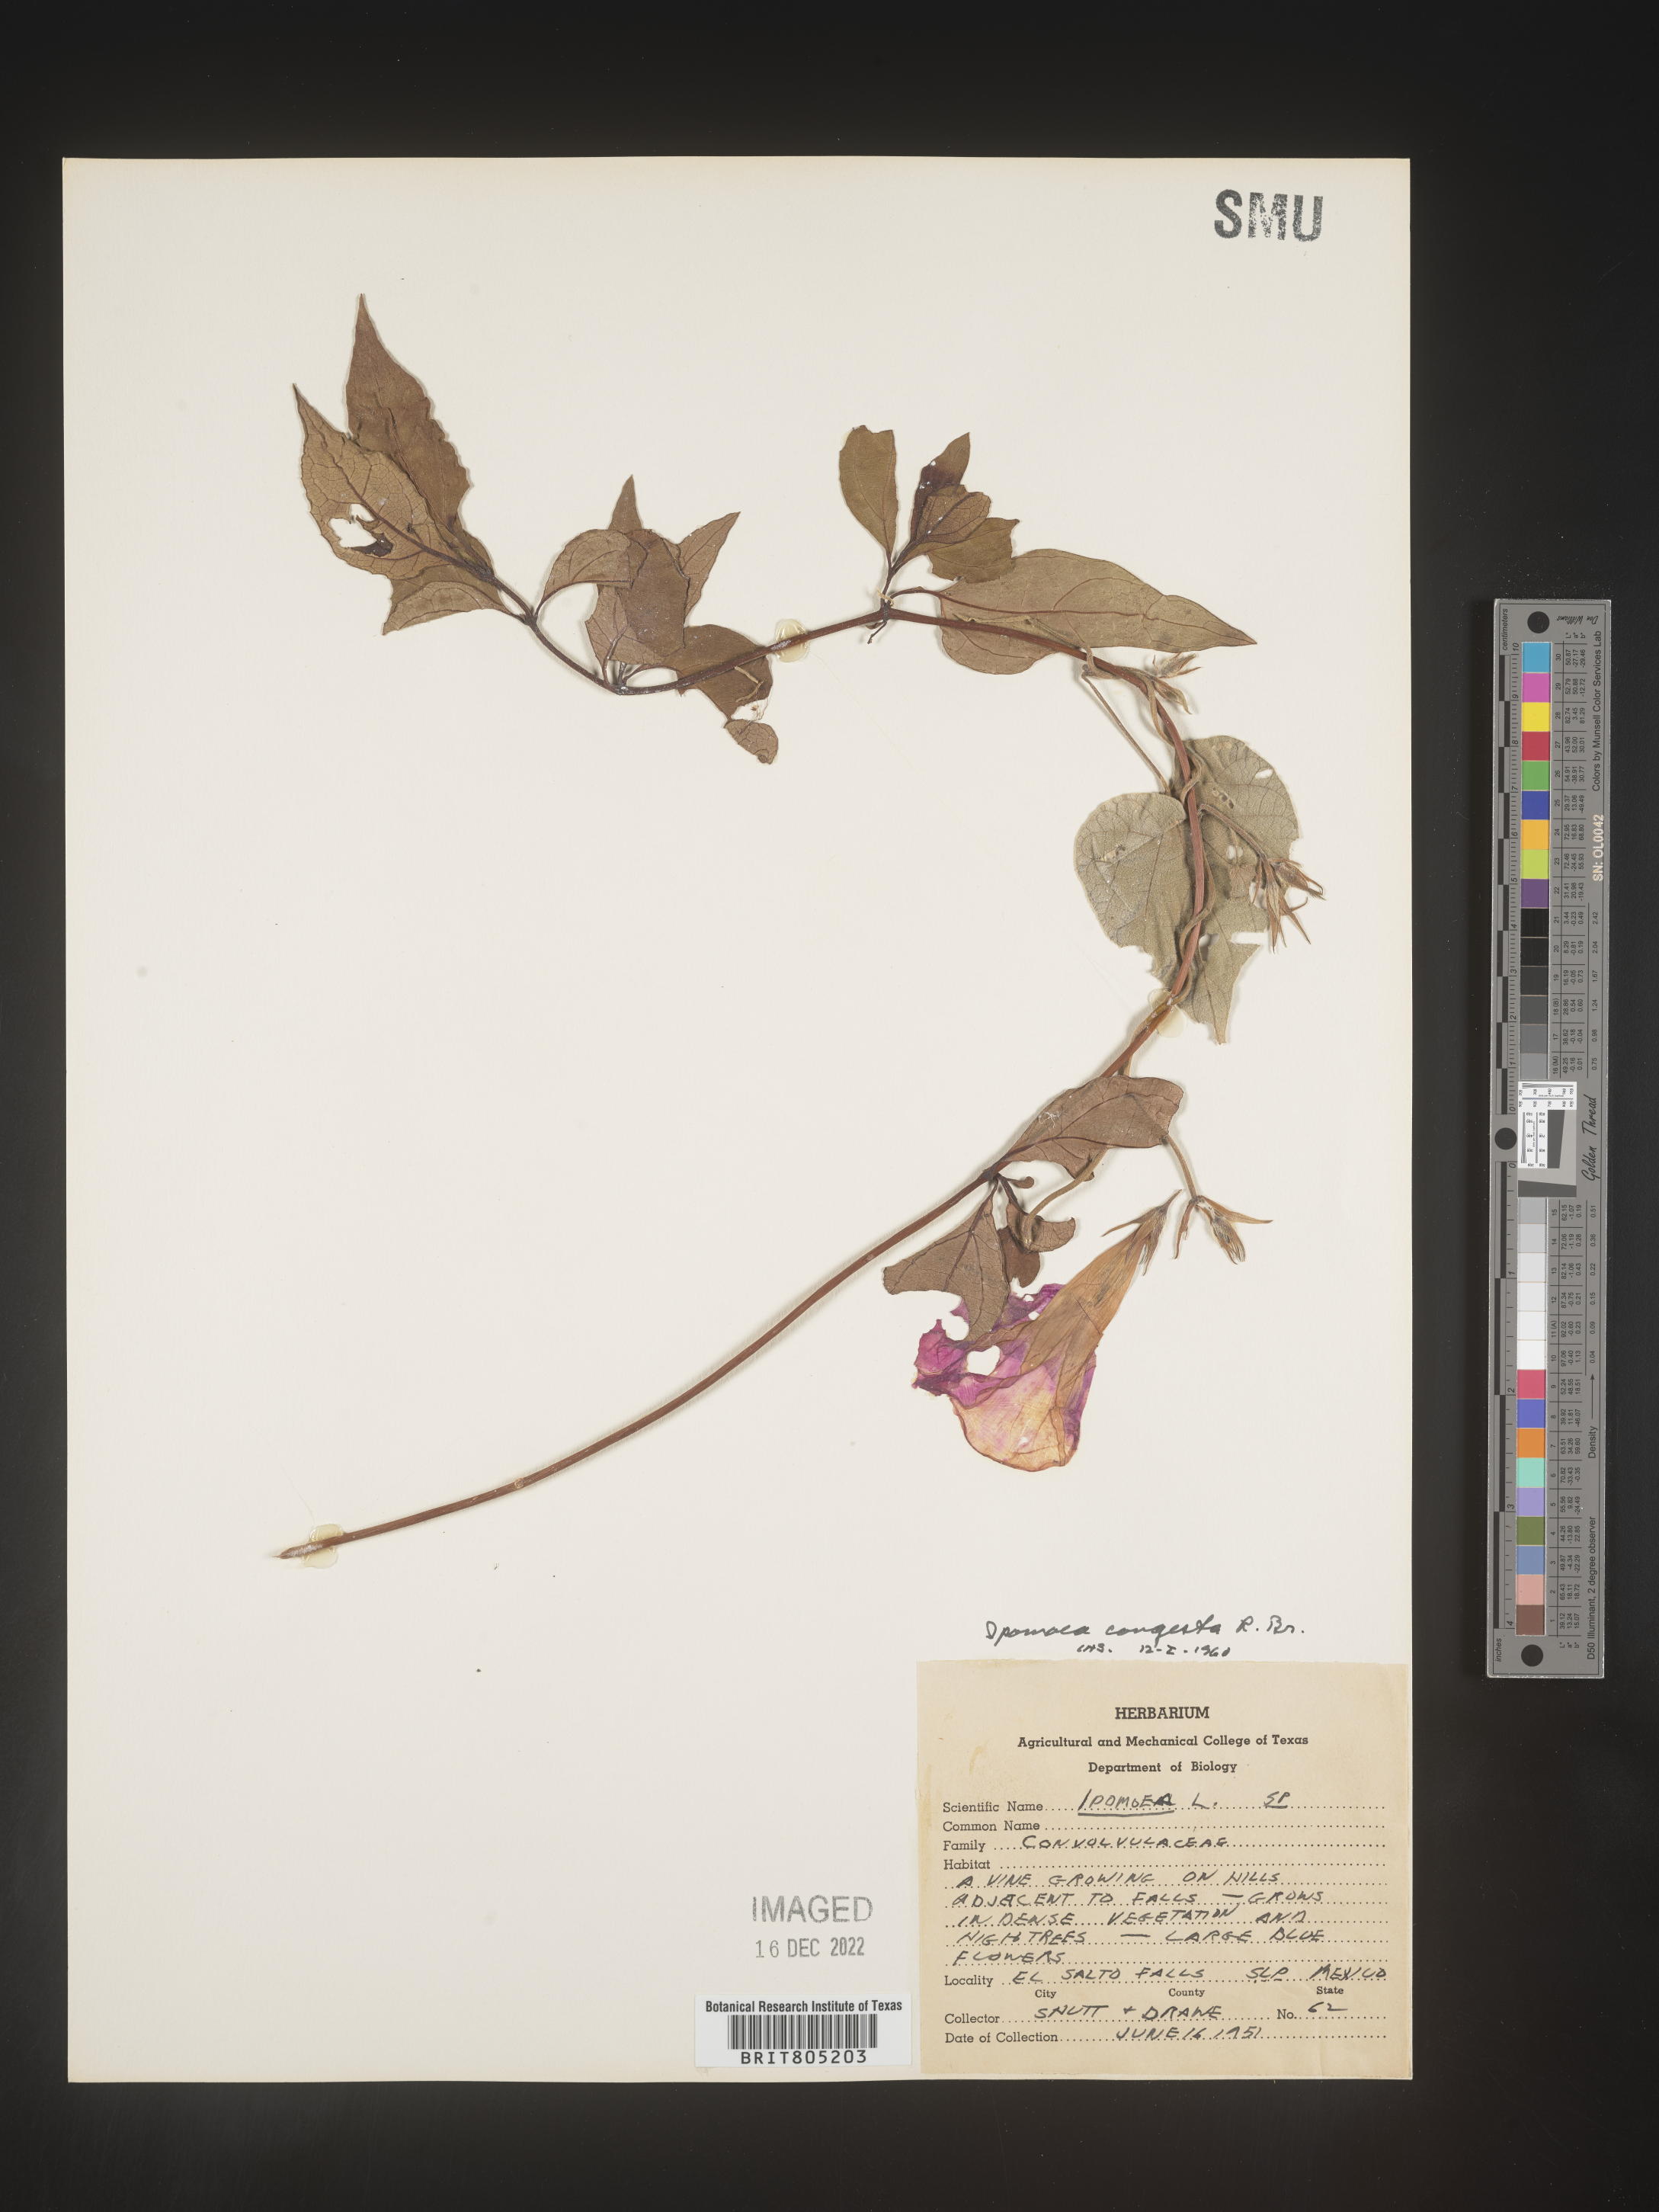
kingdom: Plantae
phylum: Tracheophyta
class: Magnoliopsida
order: Solanales
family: Convolvulaceae
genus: Ipomoea
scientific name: Ipomoea
